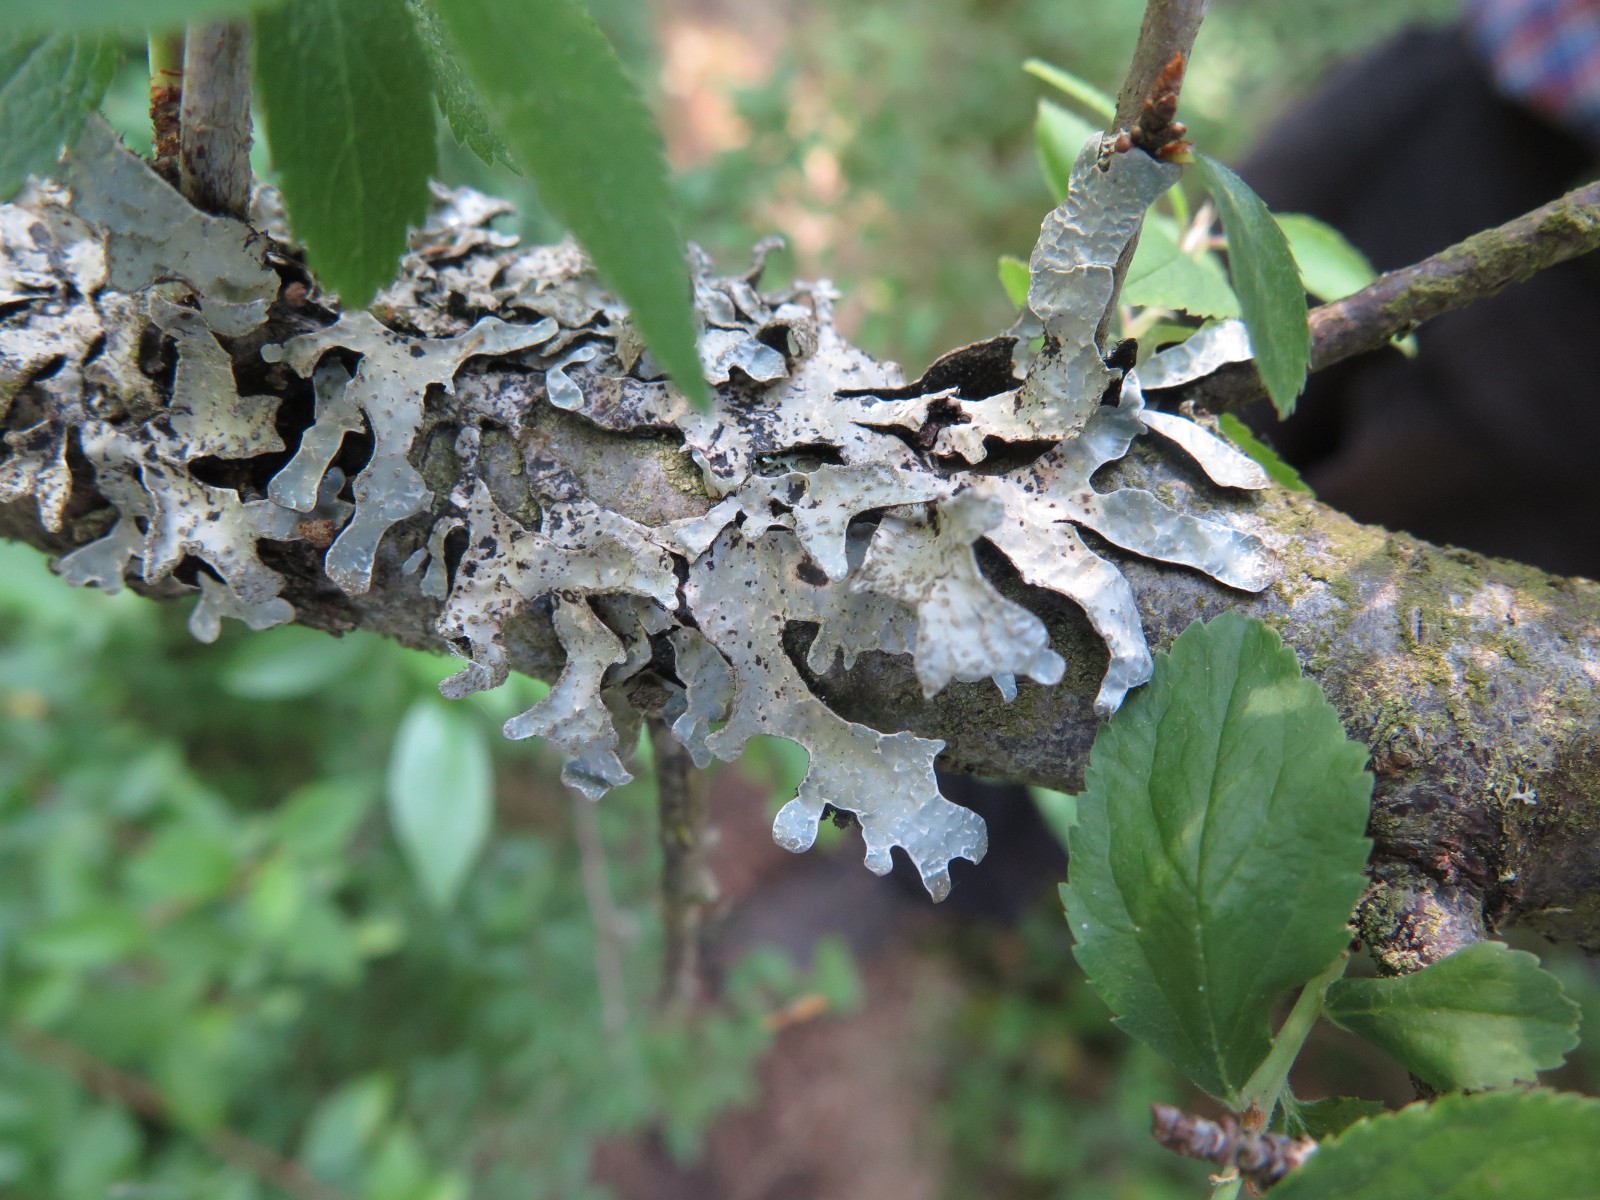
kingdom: Fungi
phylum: Ascomycota
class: Lecanoromycetes
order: Lecanorales
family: Parmeliaceae
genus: Parmelia
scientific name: Parmelia sulcata
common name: rynket skållav
